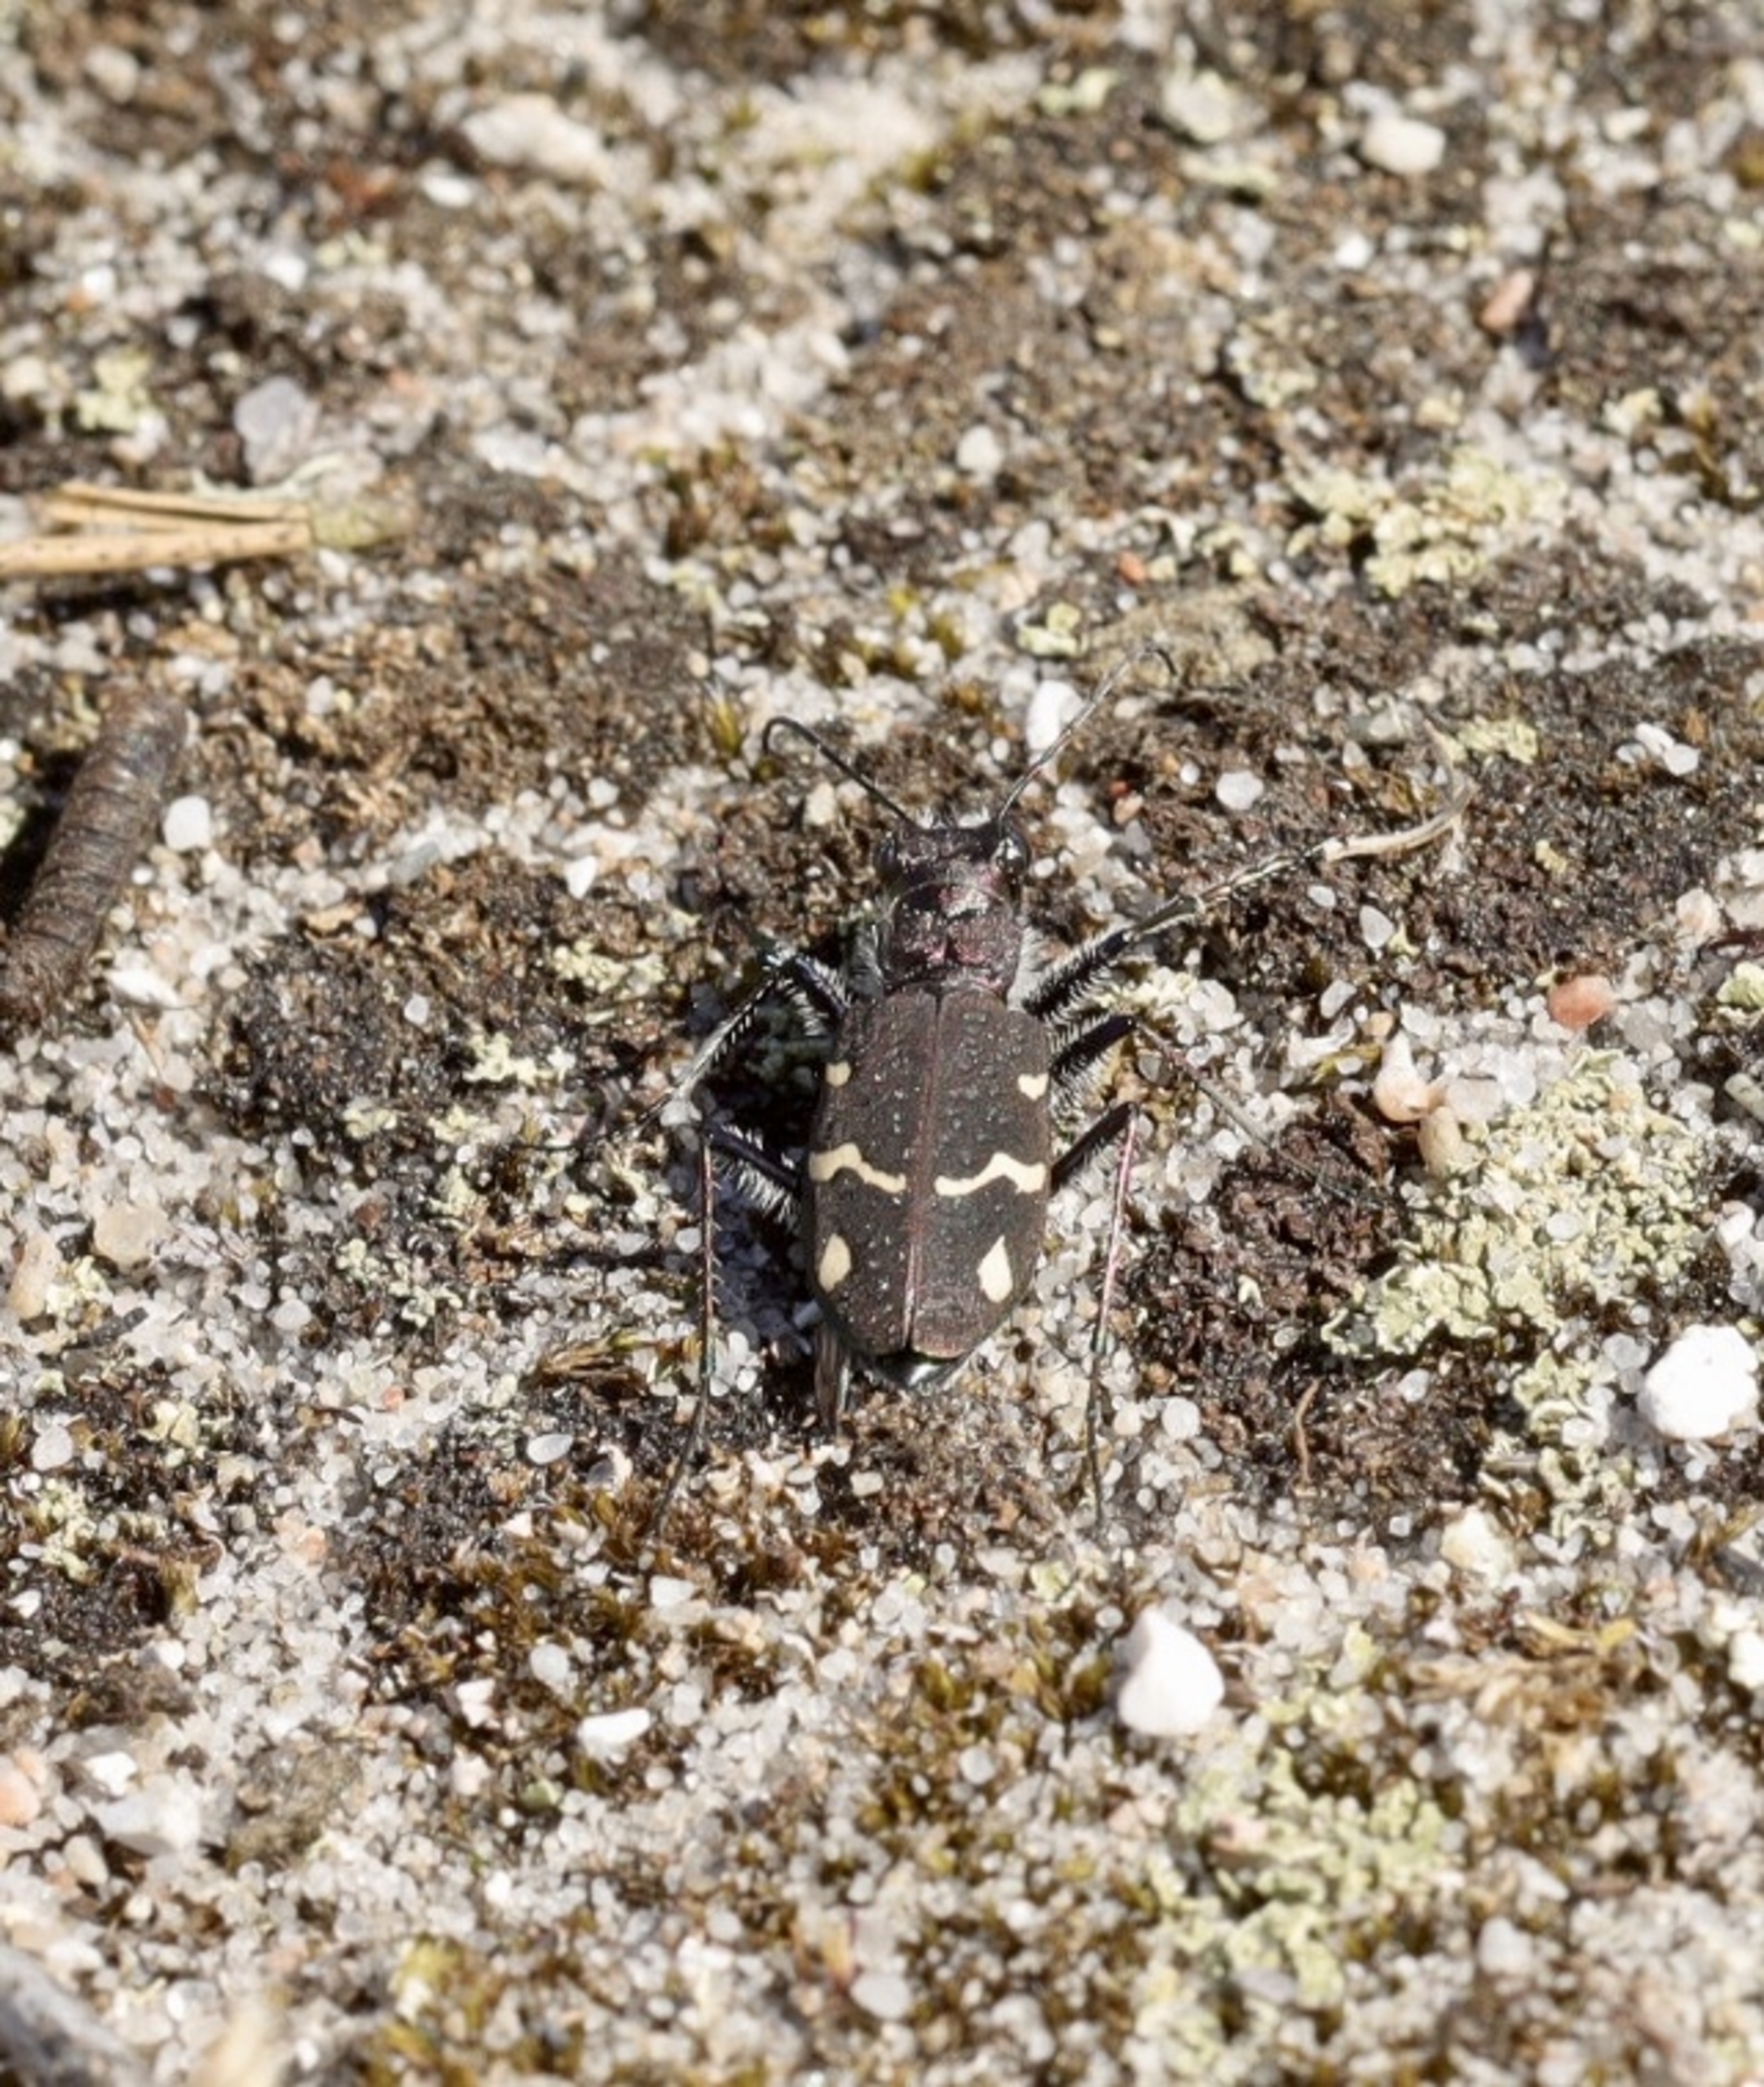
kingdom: Animalia
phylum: Arthropoda
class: Insecta
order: Coleoptera
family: Carabidae
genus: Cicindela
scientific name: Cicindela sylvatica
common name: Stor sandspringer
